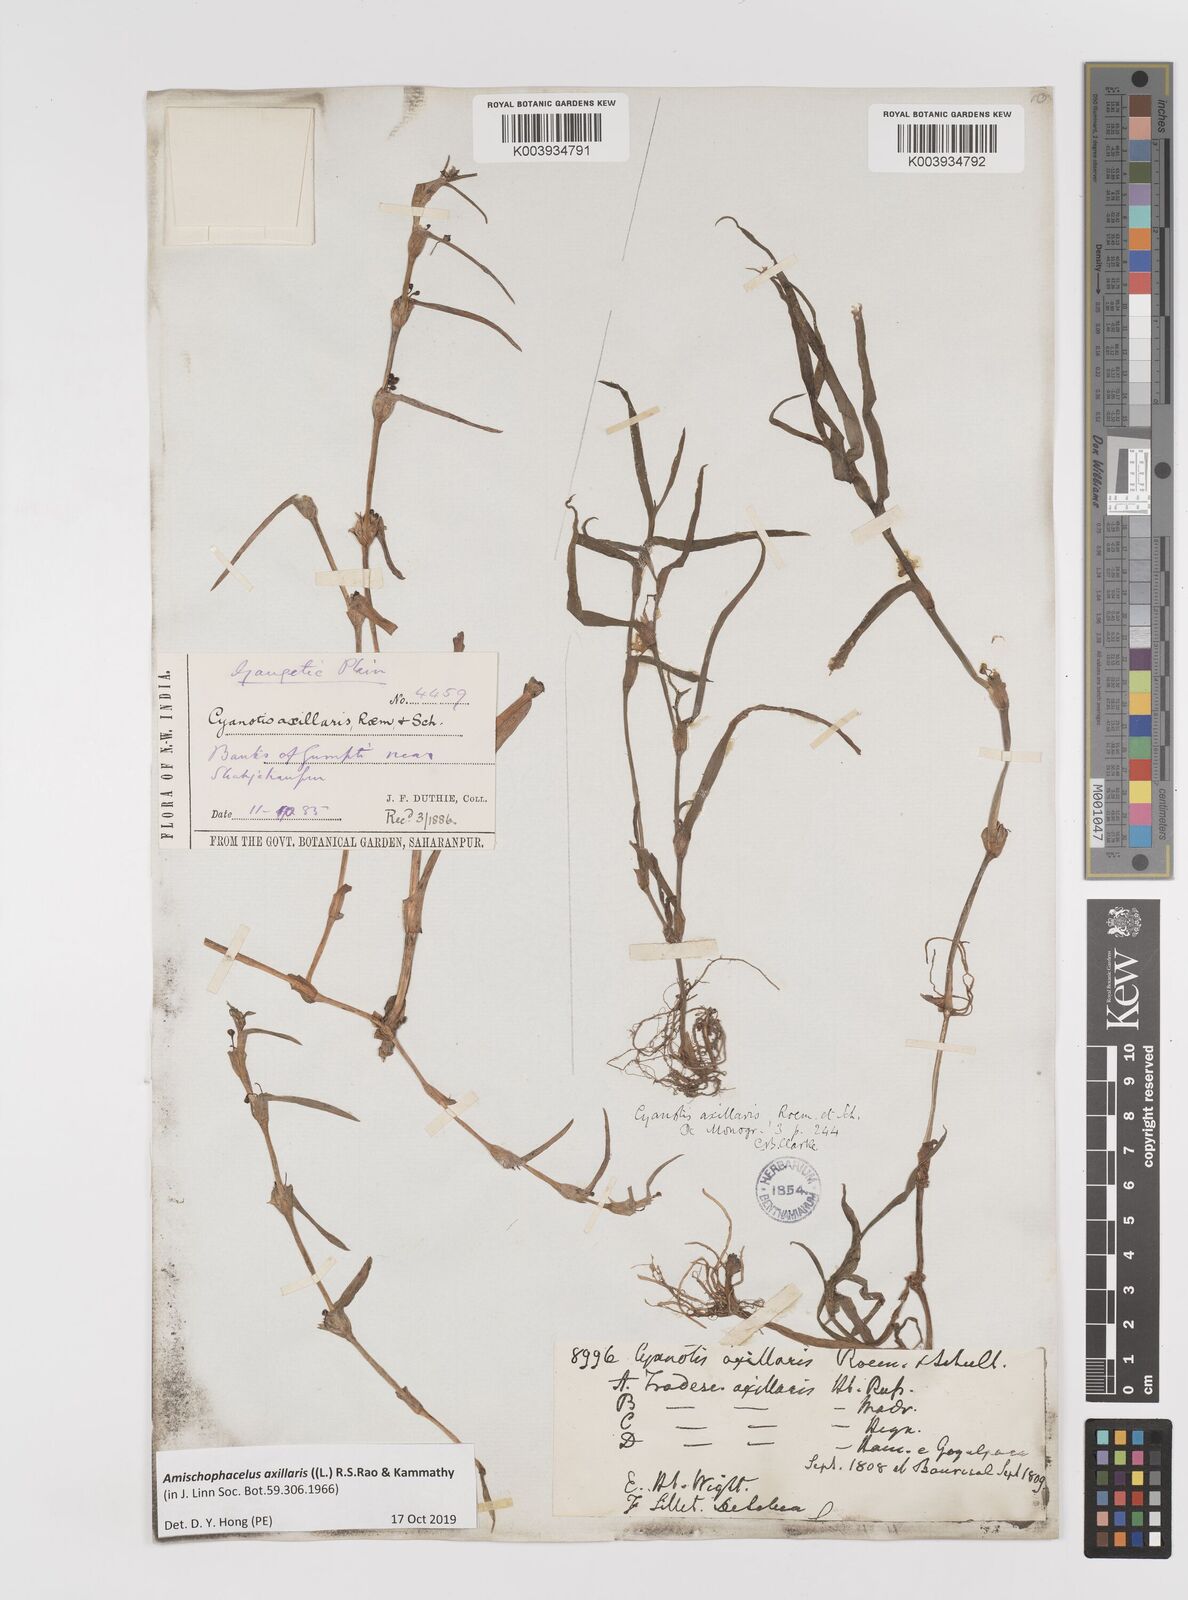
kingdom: Plantae
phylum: Tracheophyta
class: Liliopsida
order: Commelinales
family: Commelinaceae
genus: Cyanotis
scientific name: Cyanotis axillaris
